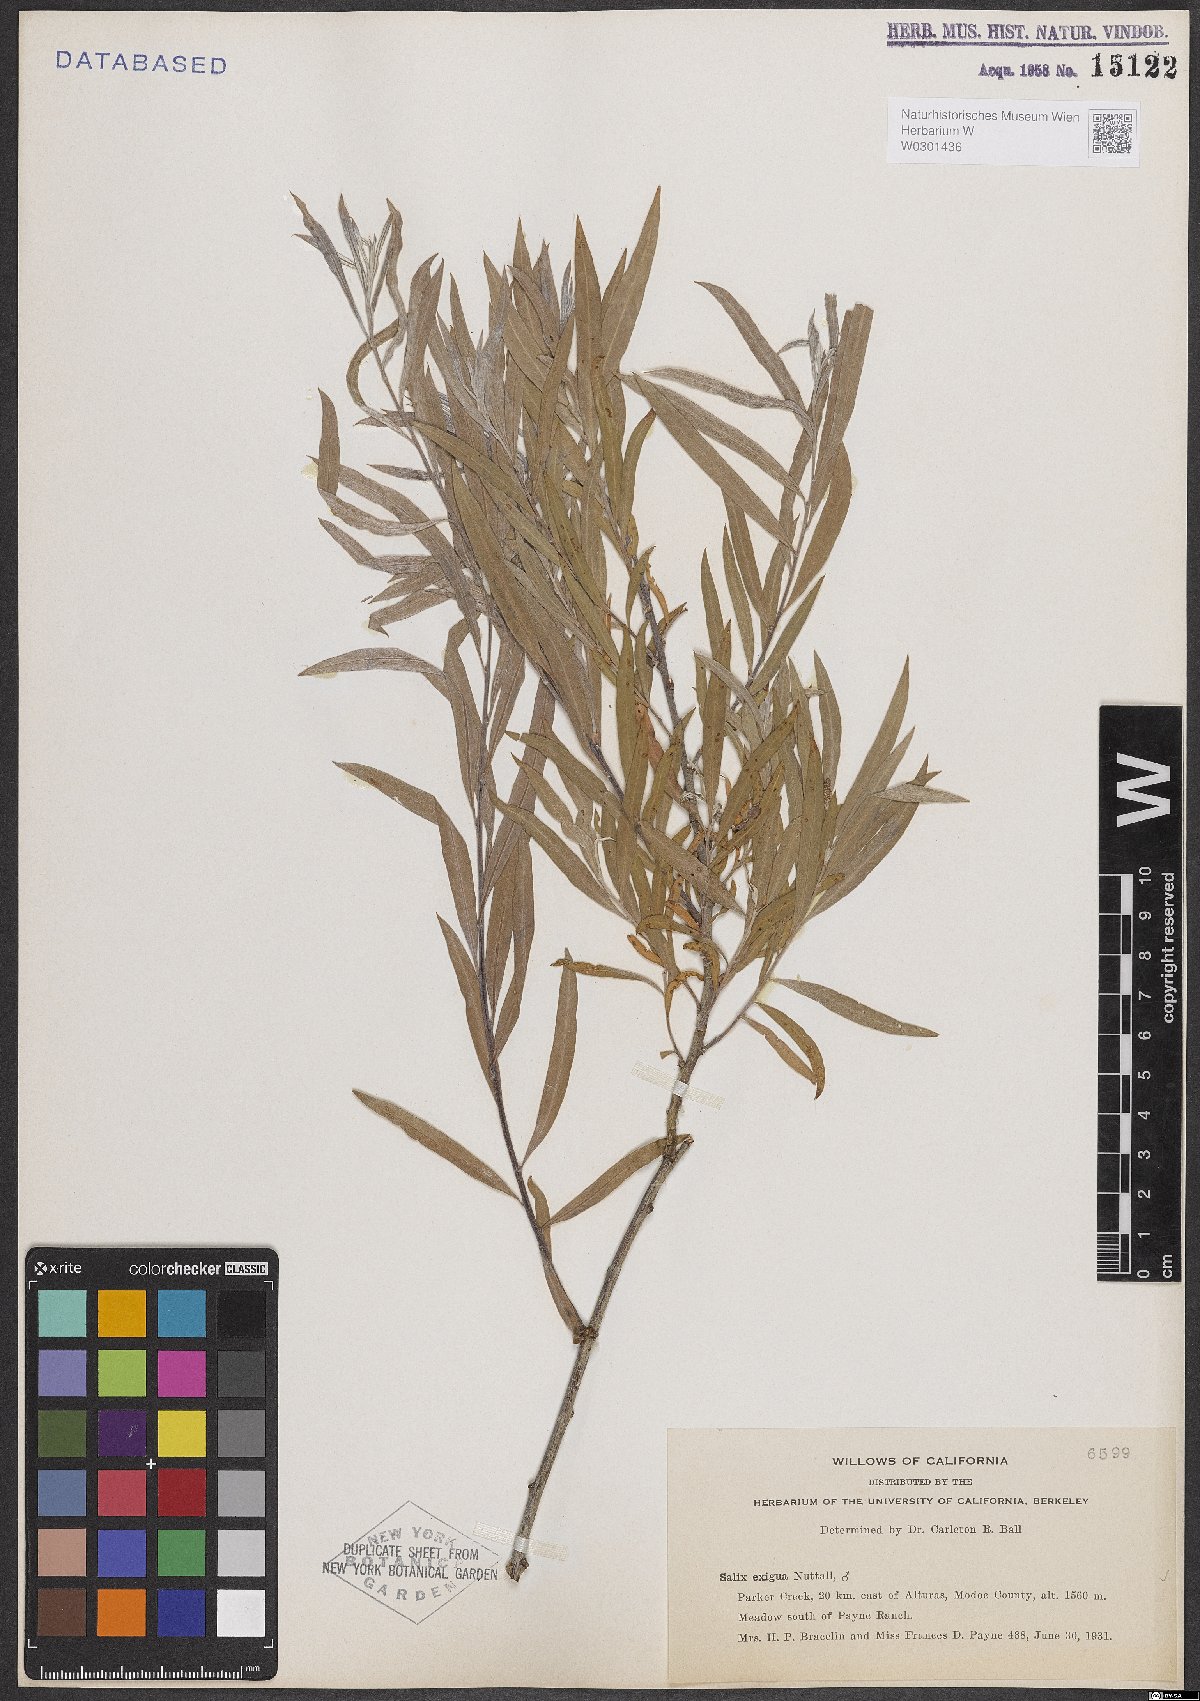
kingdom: Plantae
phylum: Tracheophyta
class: Magnoliopsida
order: Malpighiales
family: Salicaceae
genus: Salix
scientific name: Salix exigua
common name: Coyote willow
